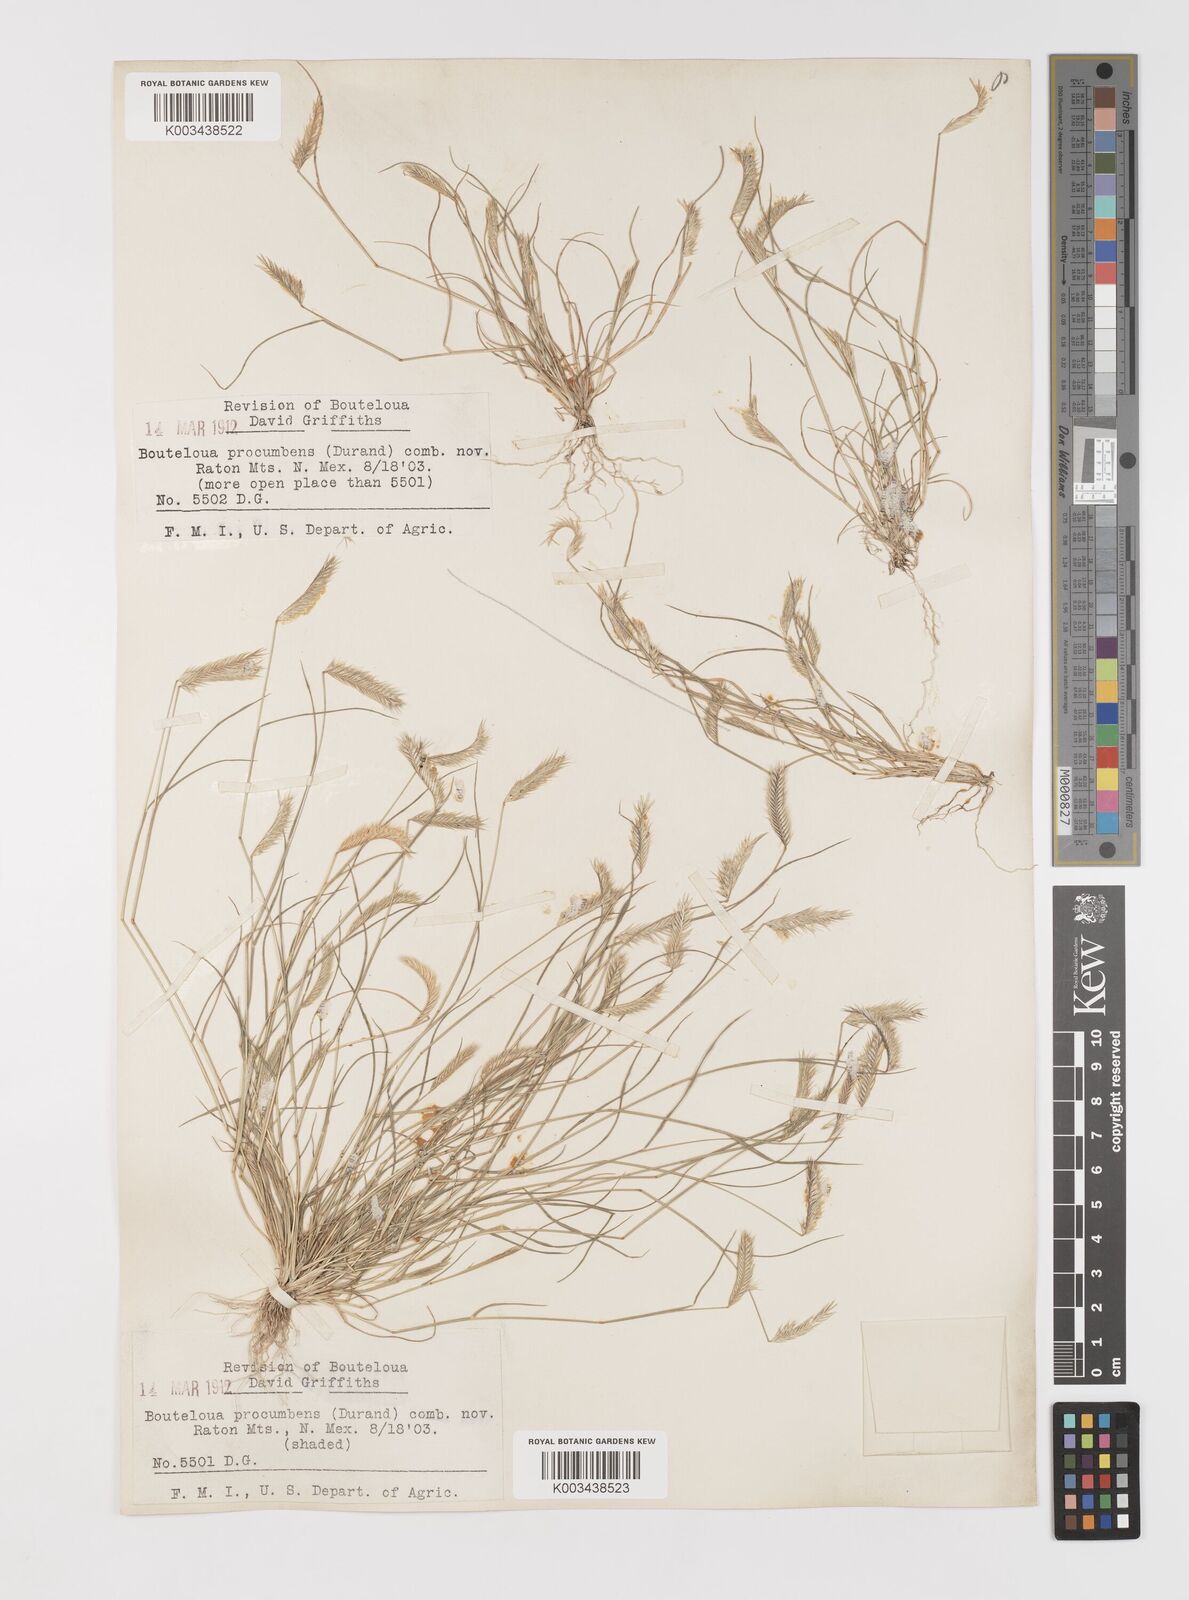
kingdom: Plantae
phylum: Tracheophyta
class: Liliopsida
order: Poales
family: Poaceae
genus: Bouteloua
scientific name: Bouteloua simplex
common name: Mat grama
